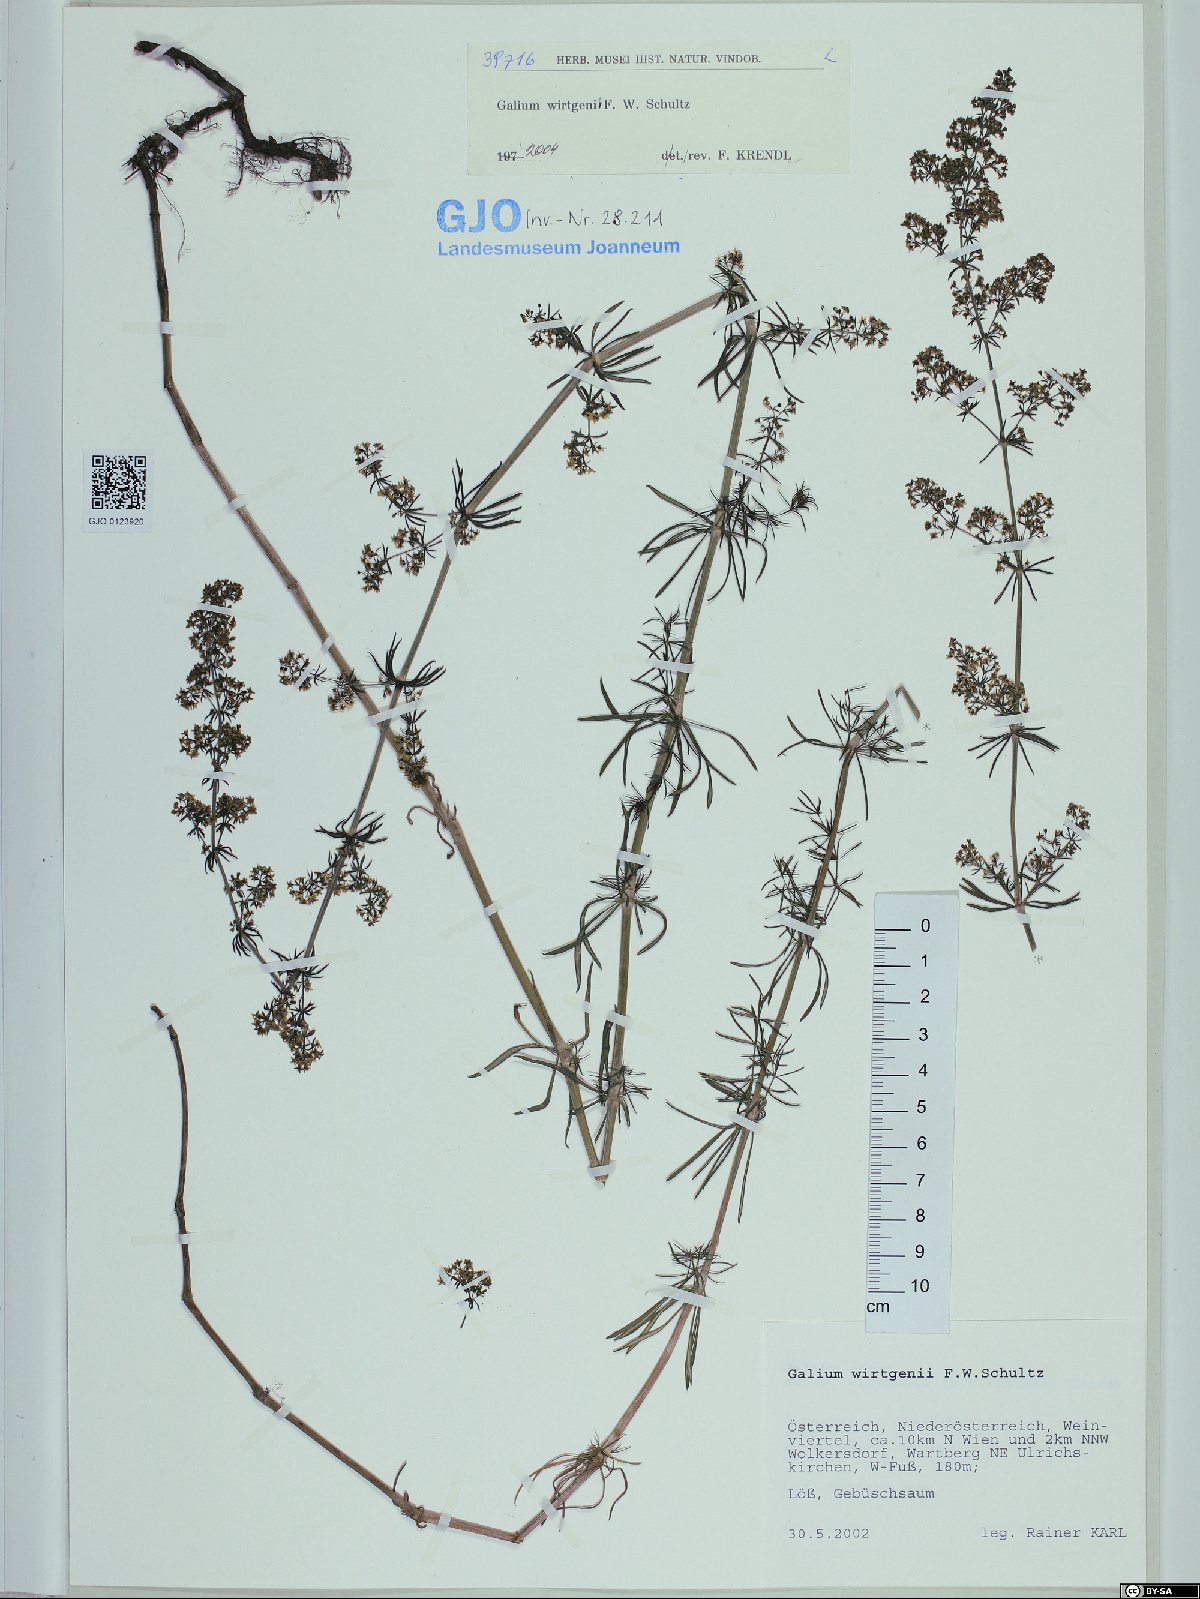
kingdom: Plantae
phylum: Tracheophyta
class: Magnoliopsida
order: Gentianales
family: Rubiaceae
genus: Galium
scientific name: Galium verum
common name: Lady's bedstraw
